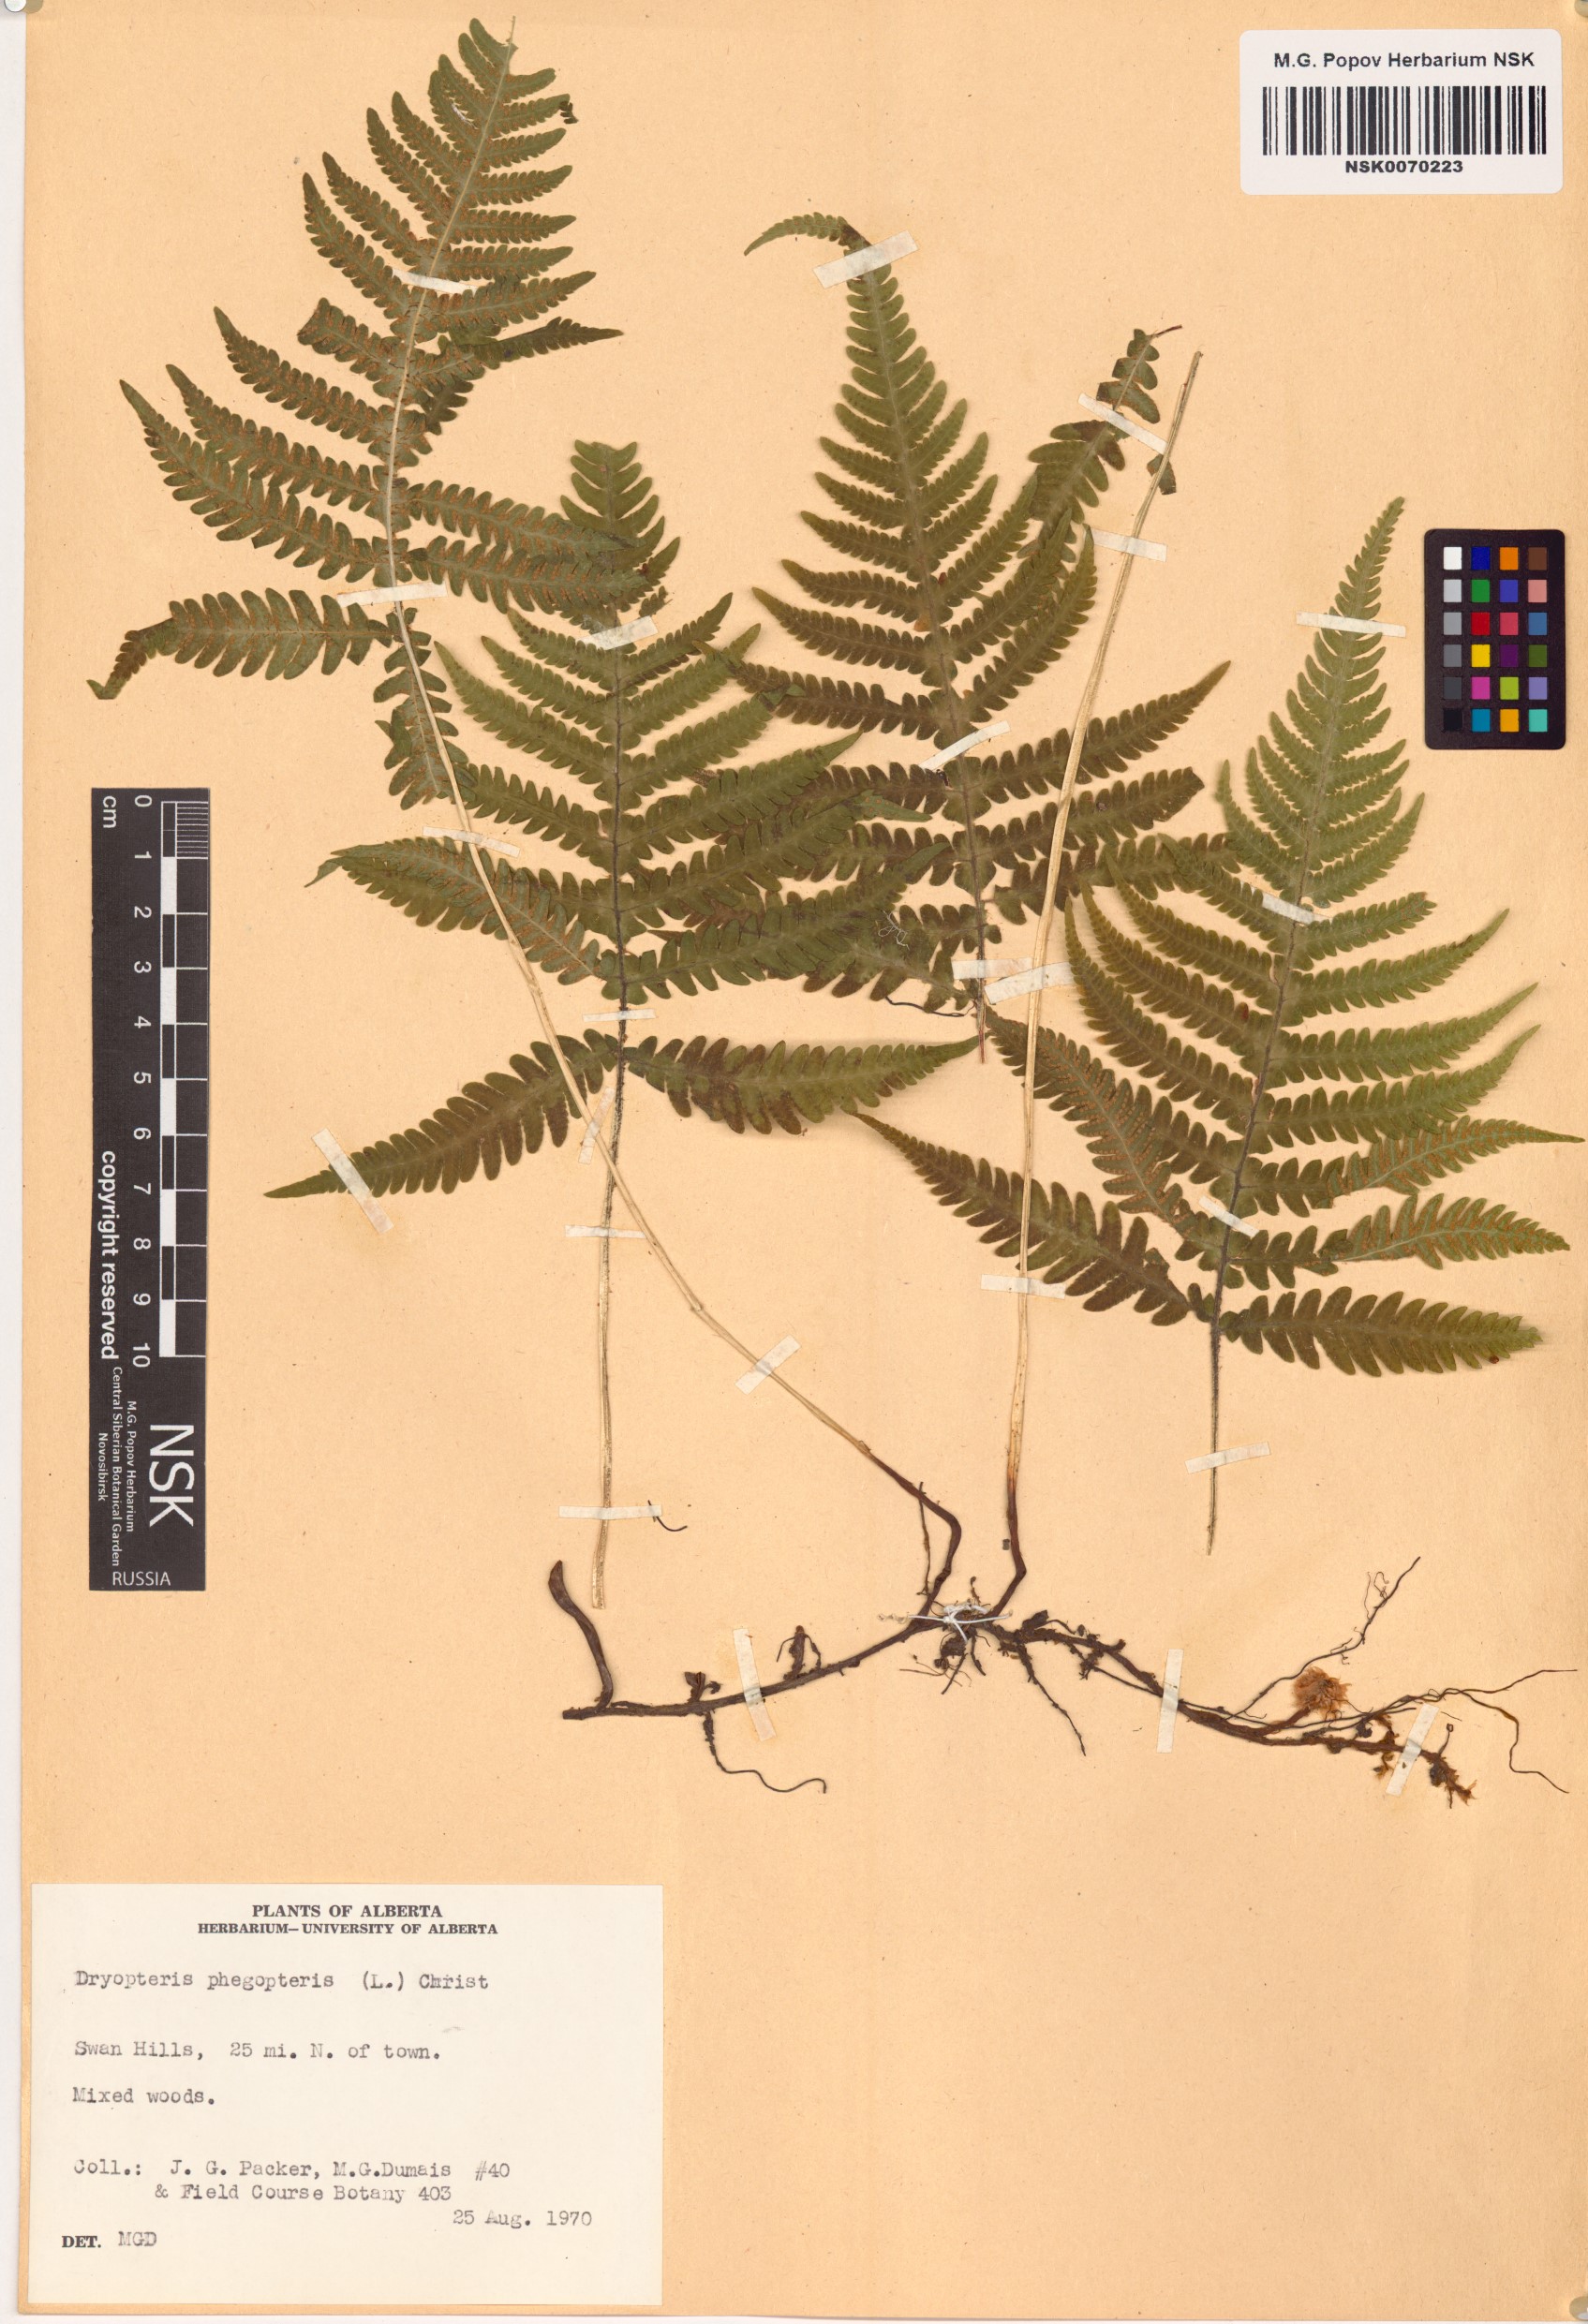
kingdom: Plantae
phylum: Tracheophyta
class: Polypodiopsida
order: Polypodiales
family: Thelypteridaceae
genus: Phegopteris
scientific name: Phegopteris connectilis
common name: Beech fern
